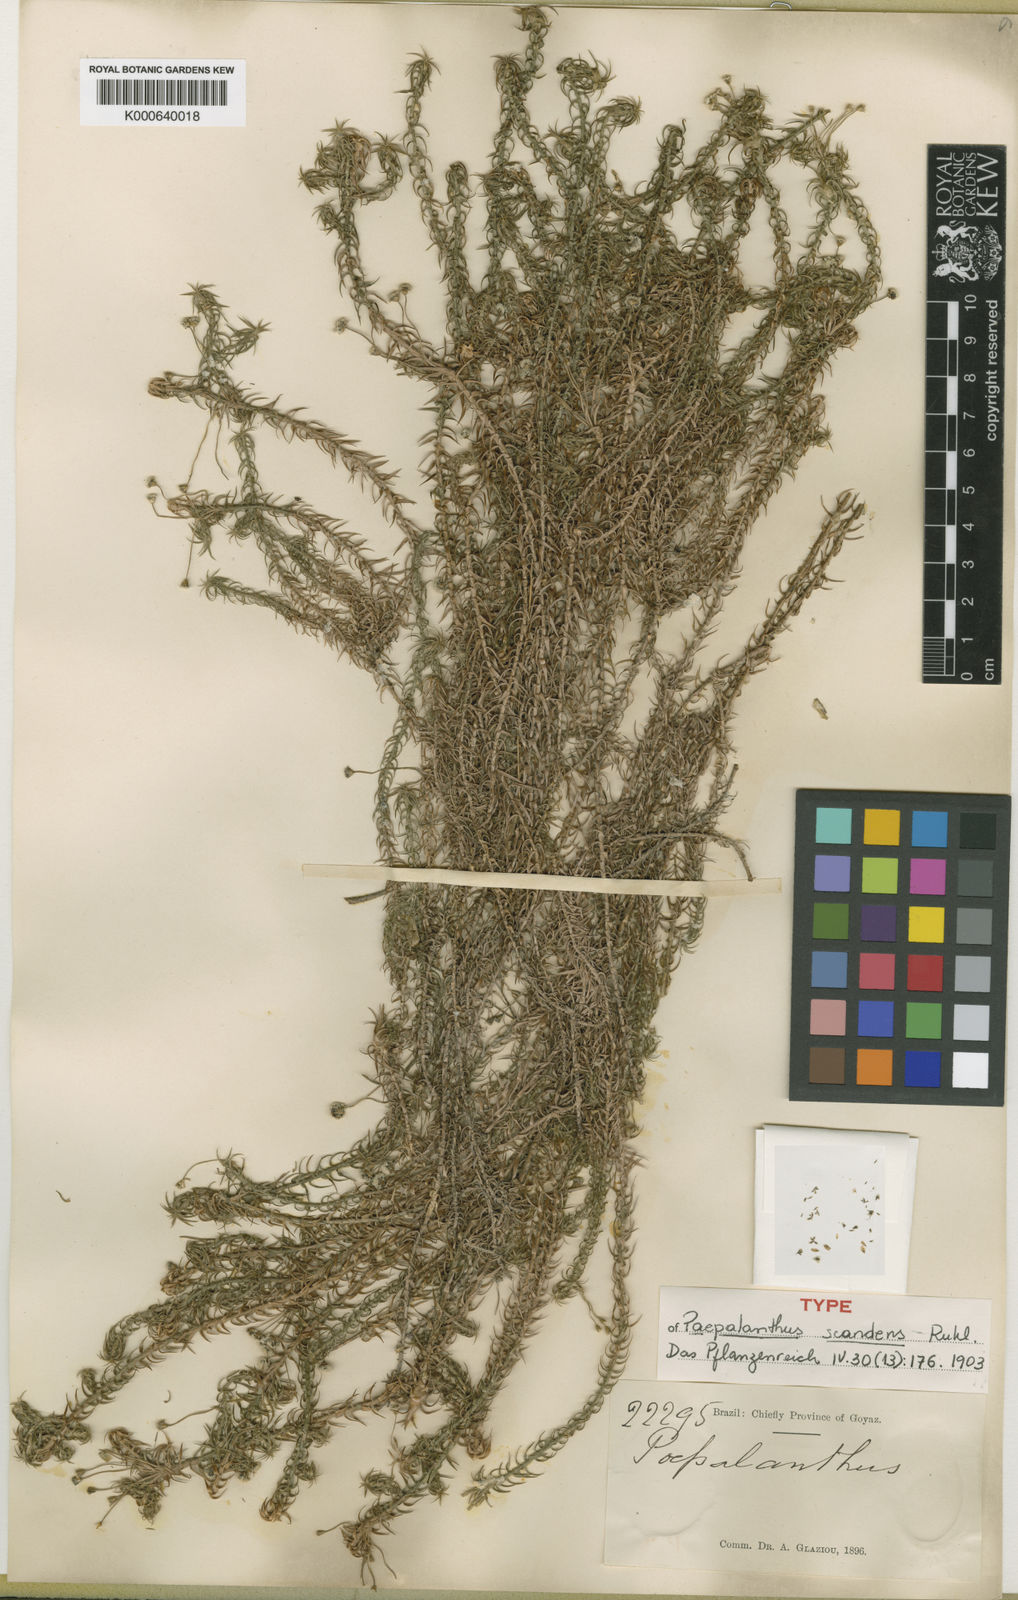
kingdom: Plantae
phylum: Tracheophyta
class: Liliopsida
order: Poales
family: Eriocaulaceae
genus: Paepalanthus
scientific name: Paepalanthus scandens
